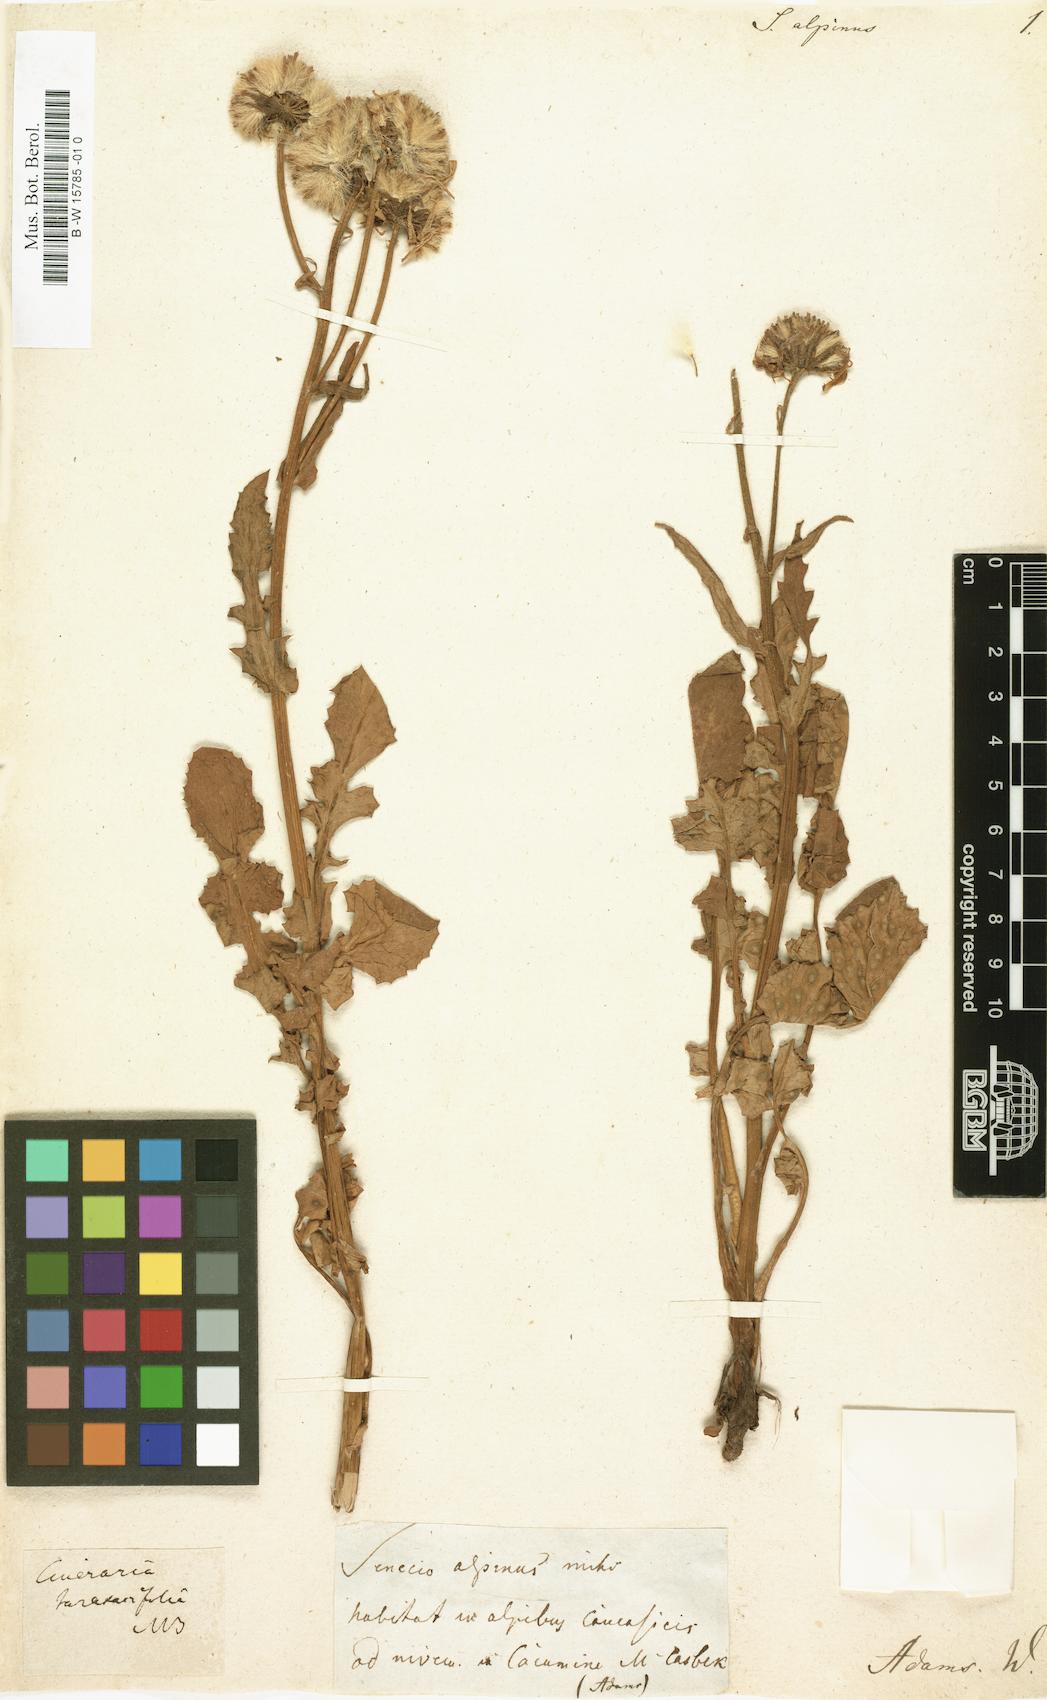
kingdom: Plantae
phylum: Tracheophyta
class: Magnoliopsida
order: Asterales
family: Asteraceae
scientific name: Asteraceae
